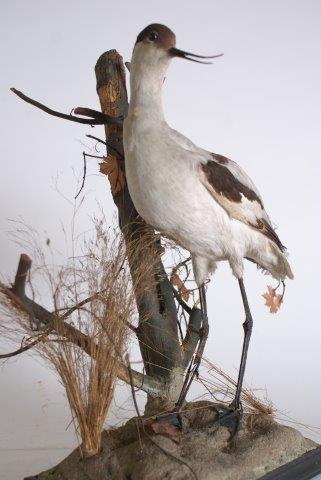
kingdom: Animalia
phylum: Chordata
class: Aves
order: Charadriiformes
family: Recurvirostridae
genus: Recurvirostra
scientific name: Recurvirostra avosetta
